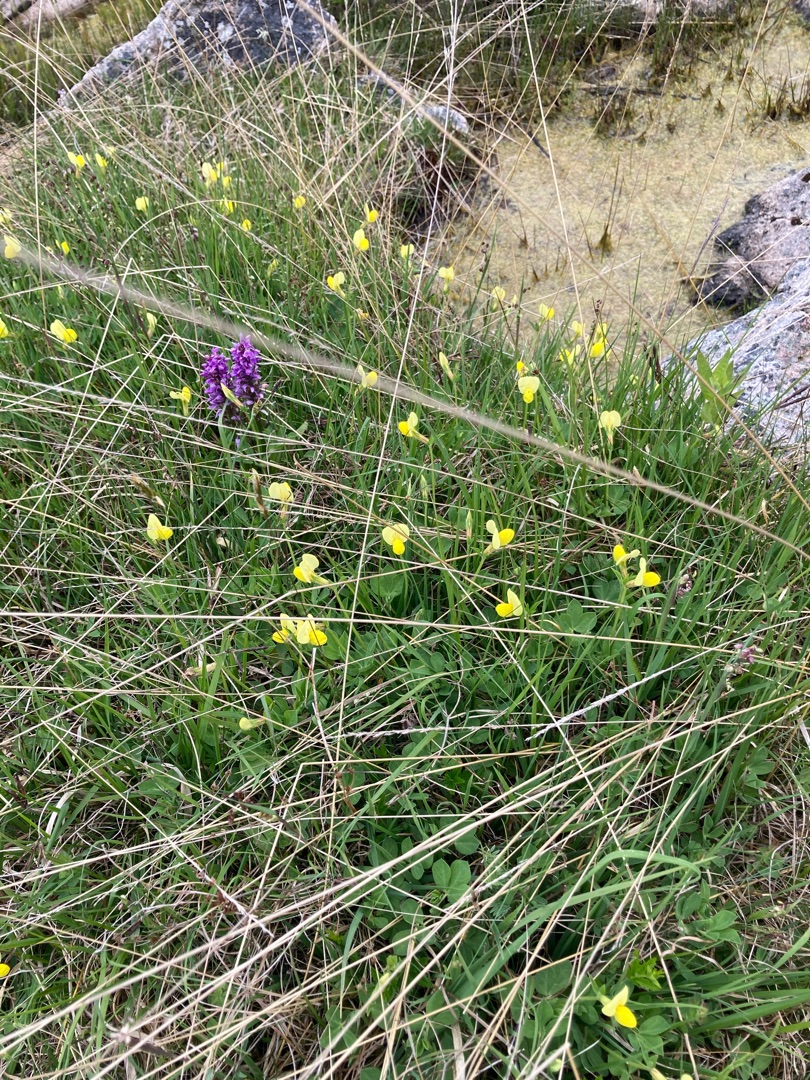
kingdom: Plantae
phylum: Tracheophyta
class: Magnoliopsida
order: Fabales
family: Fabaceae
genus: Lotus
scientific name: Lotus maritimus
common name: Kantbælg
